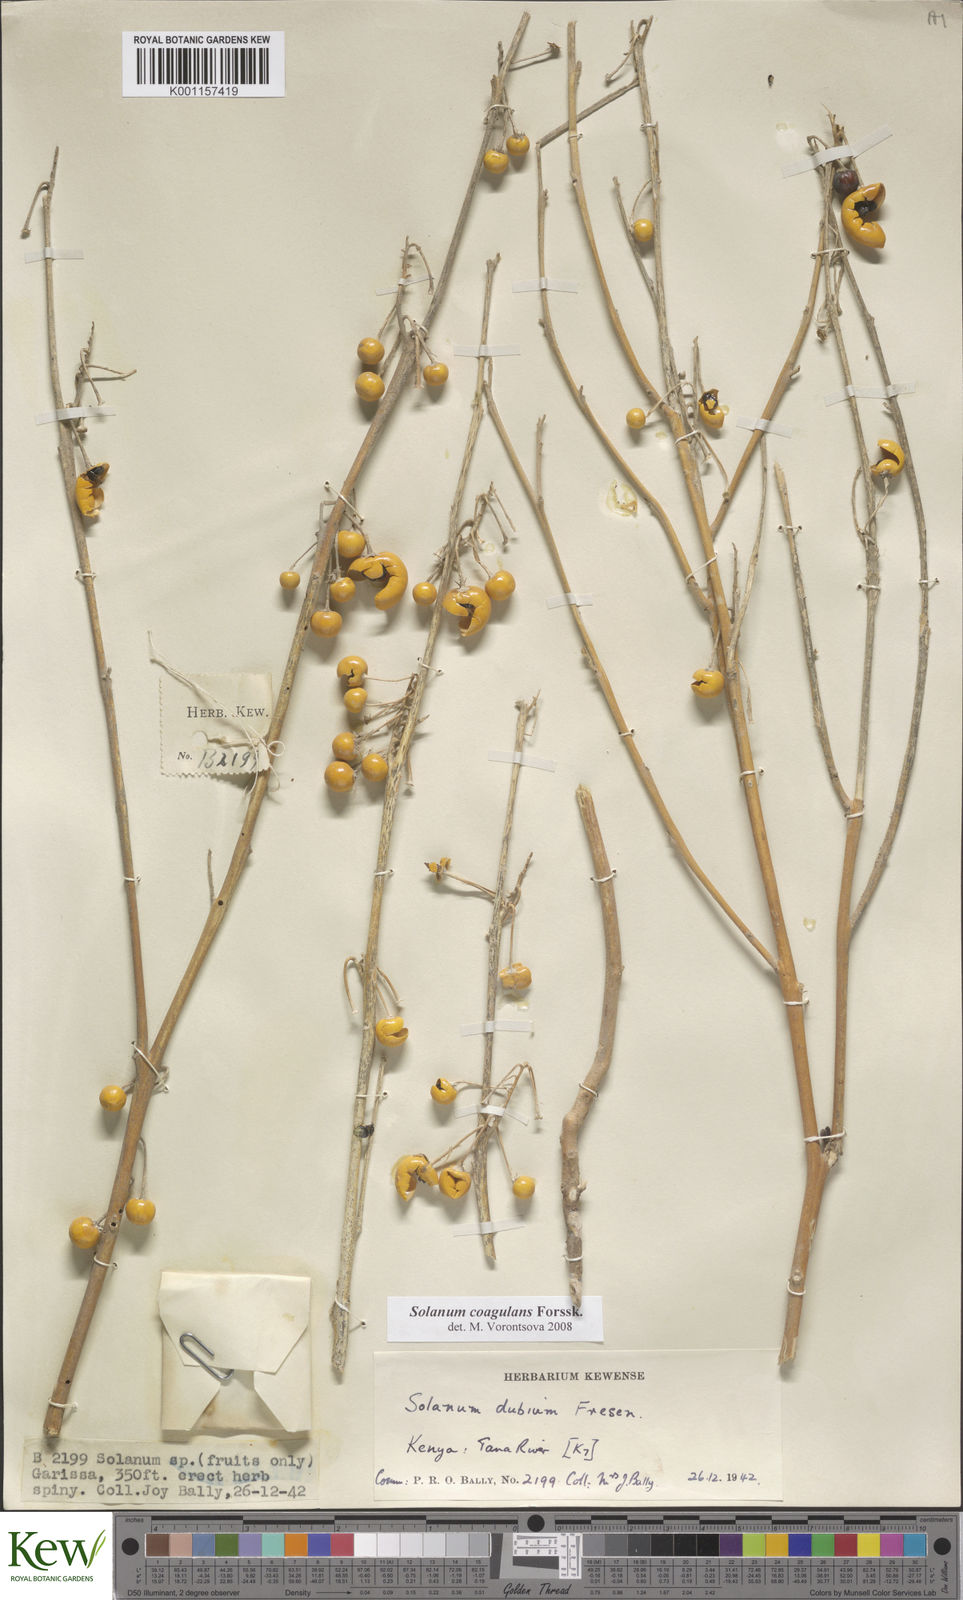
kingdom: Plantae
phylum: Tracheophyta
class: Magnoliopsida
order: Solanales
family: Solanaceae
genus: Solanum
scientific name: Solanum coagulans
